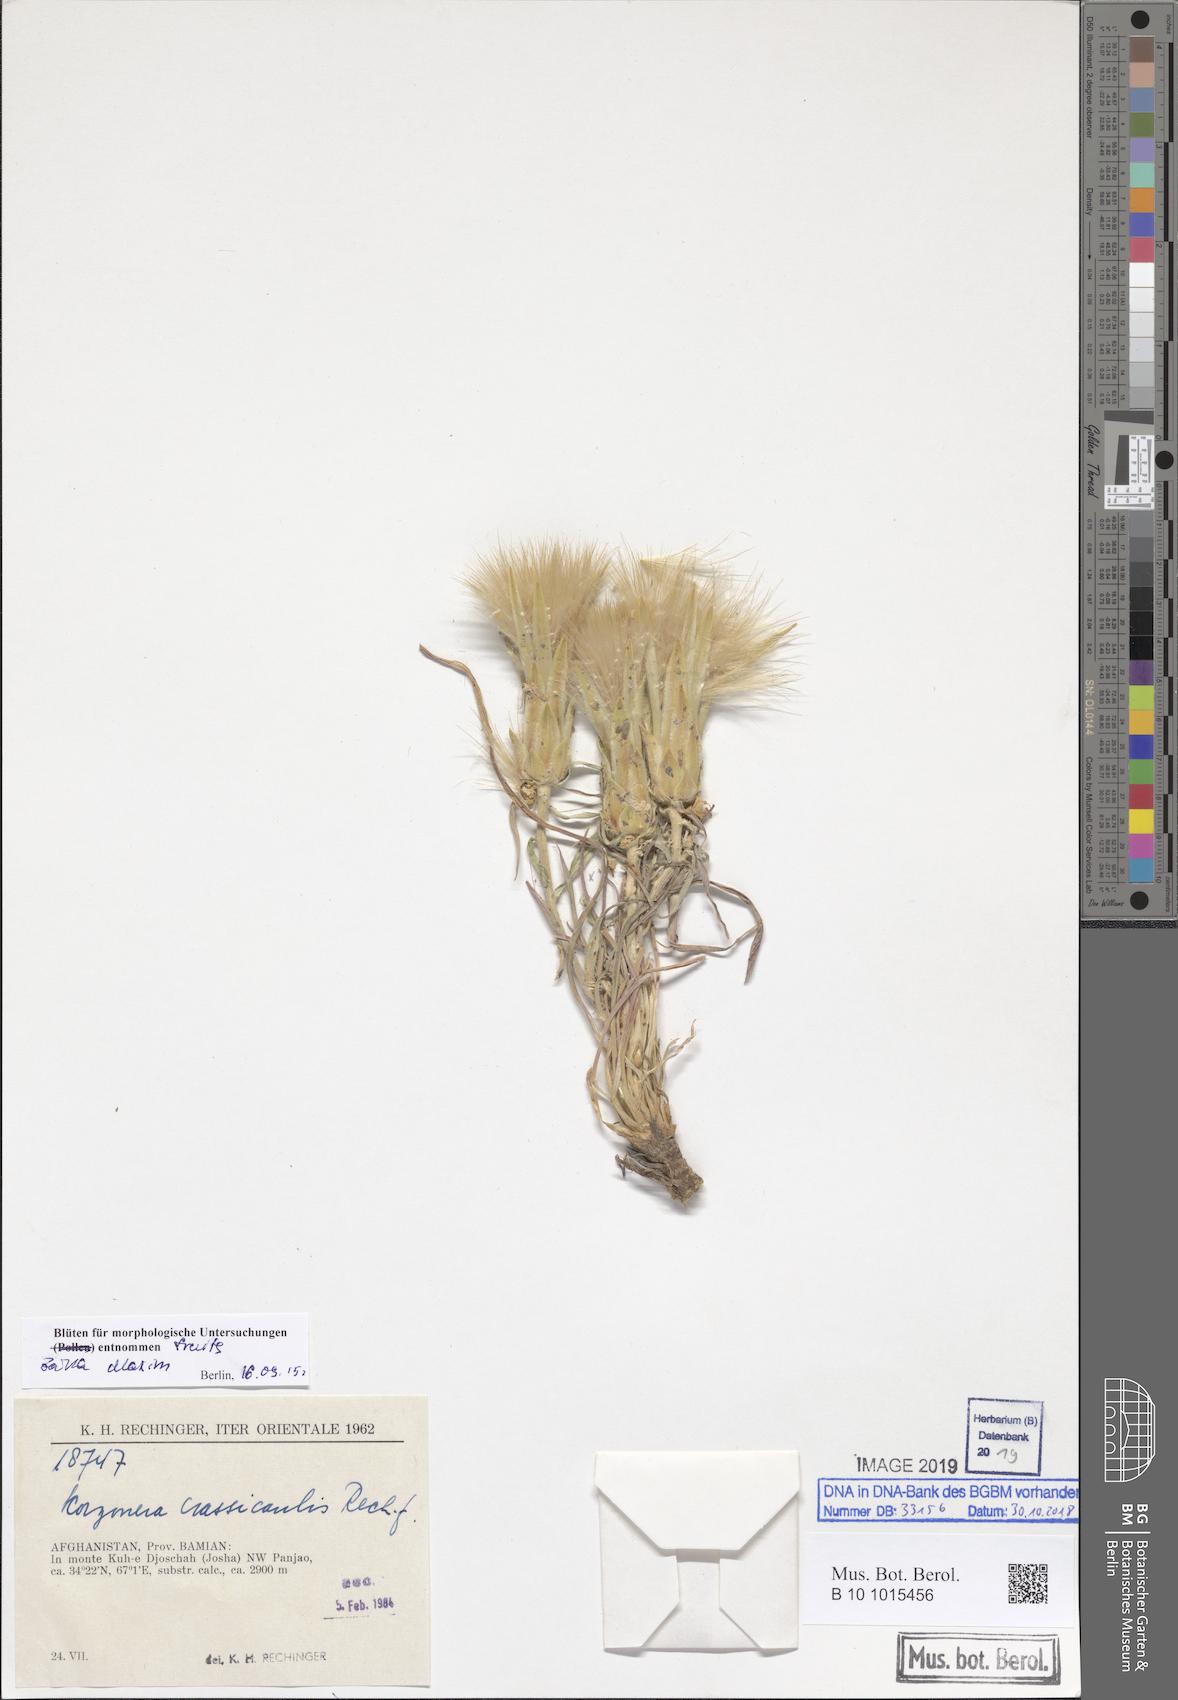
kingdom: Plantae
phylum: Tracheophyta
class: Magnoliopsida
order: Asterales
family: Asteraceae
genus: Scorzonera
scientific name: Scorzonera crassicaulis
